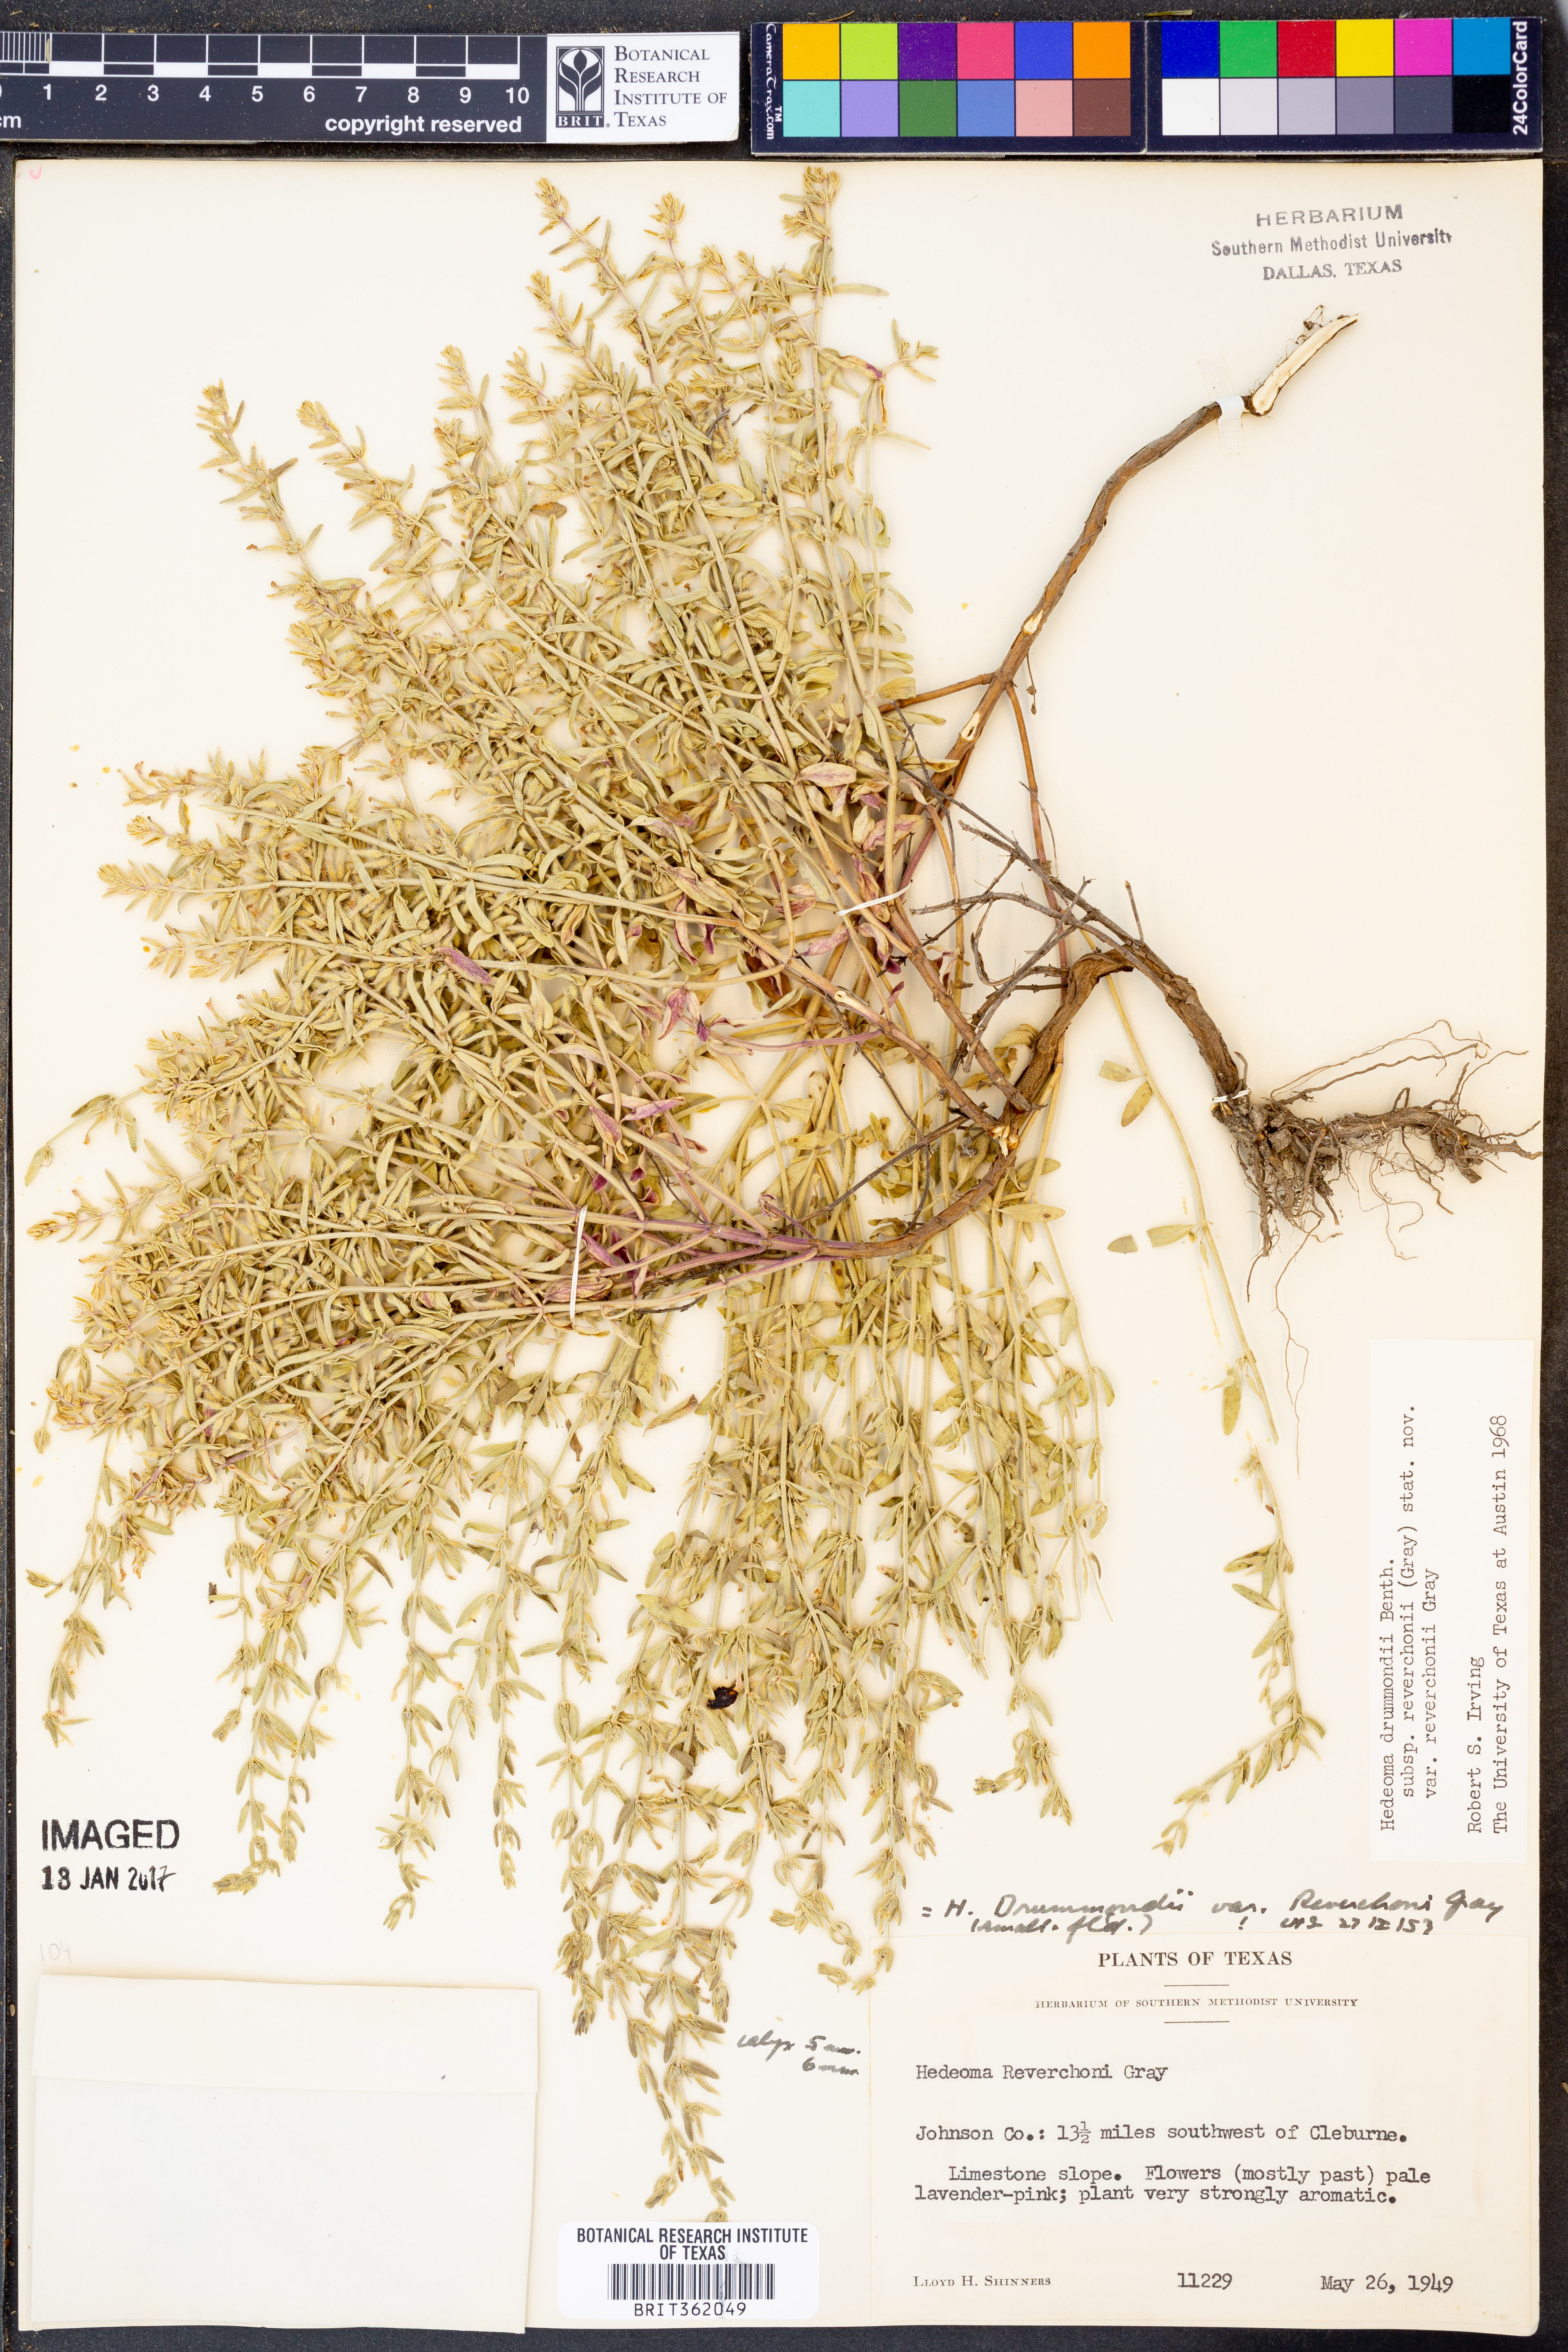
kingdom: Plantae
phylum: Tracheophyta
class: Magnoliopsida
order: Lamiales
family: Lamiaceae
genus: Hedeoma
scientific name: Hedeoma reverchonii
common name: Reverchon's false penny-royal
